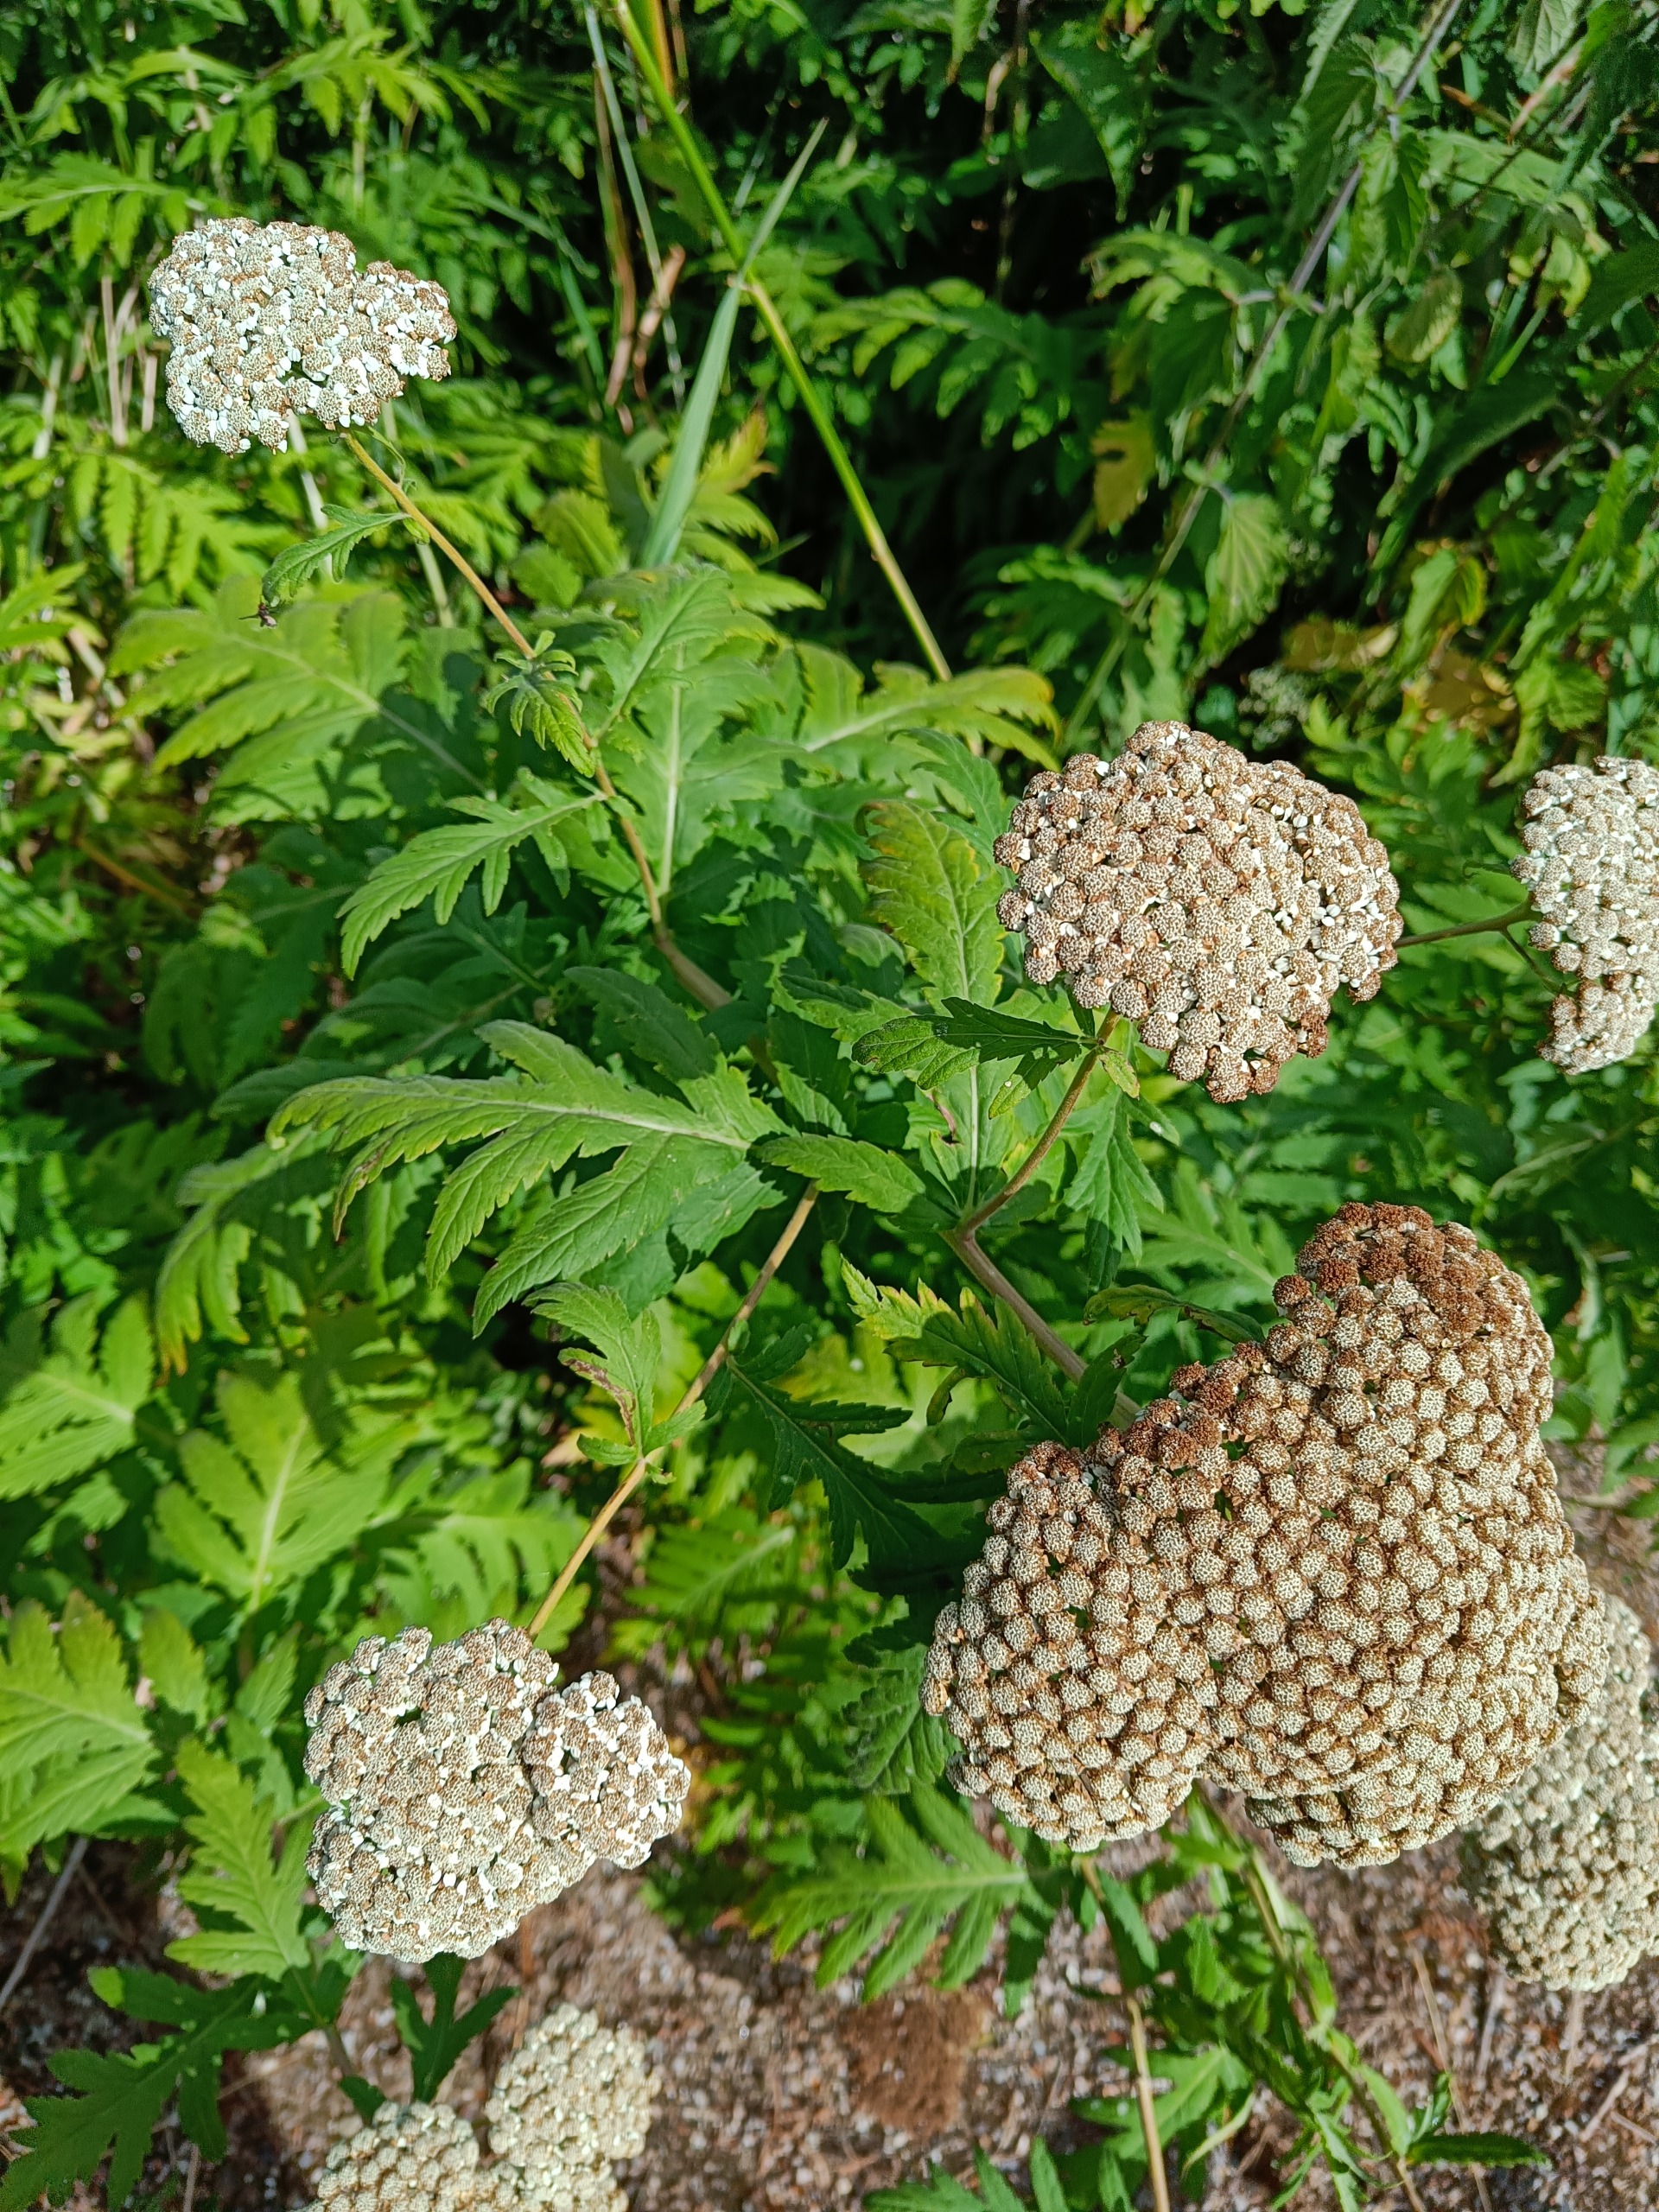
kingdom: Plantae
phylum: Tracheophyta
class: Magnoliopsida
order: Asterales
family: Asteraceae
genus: Tanacetum
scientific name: Tanacetum macrophyllum
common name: Røllike-matrem
